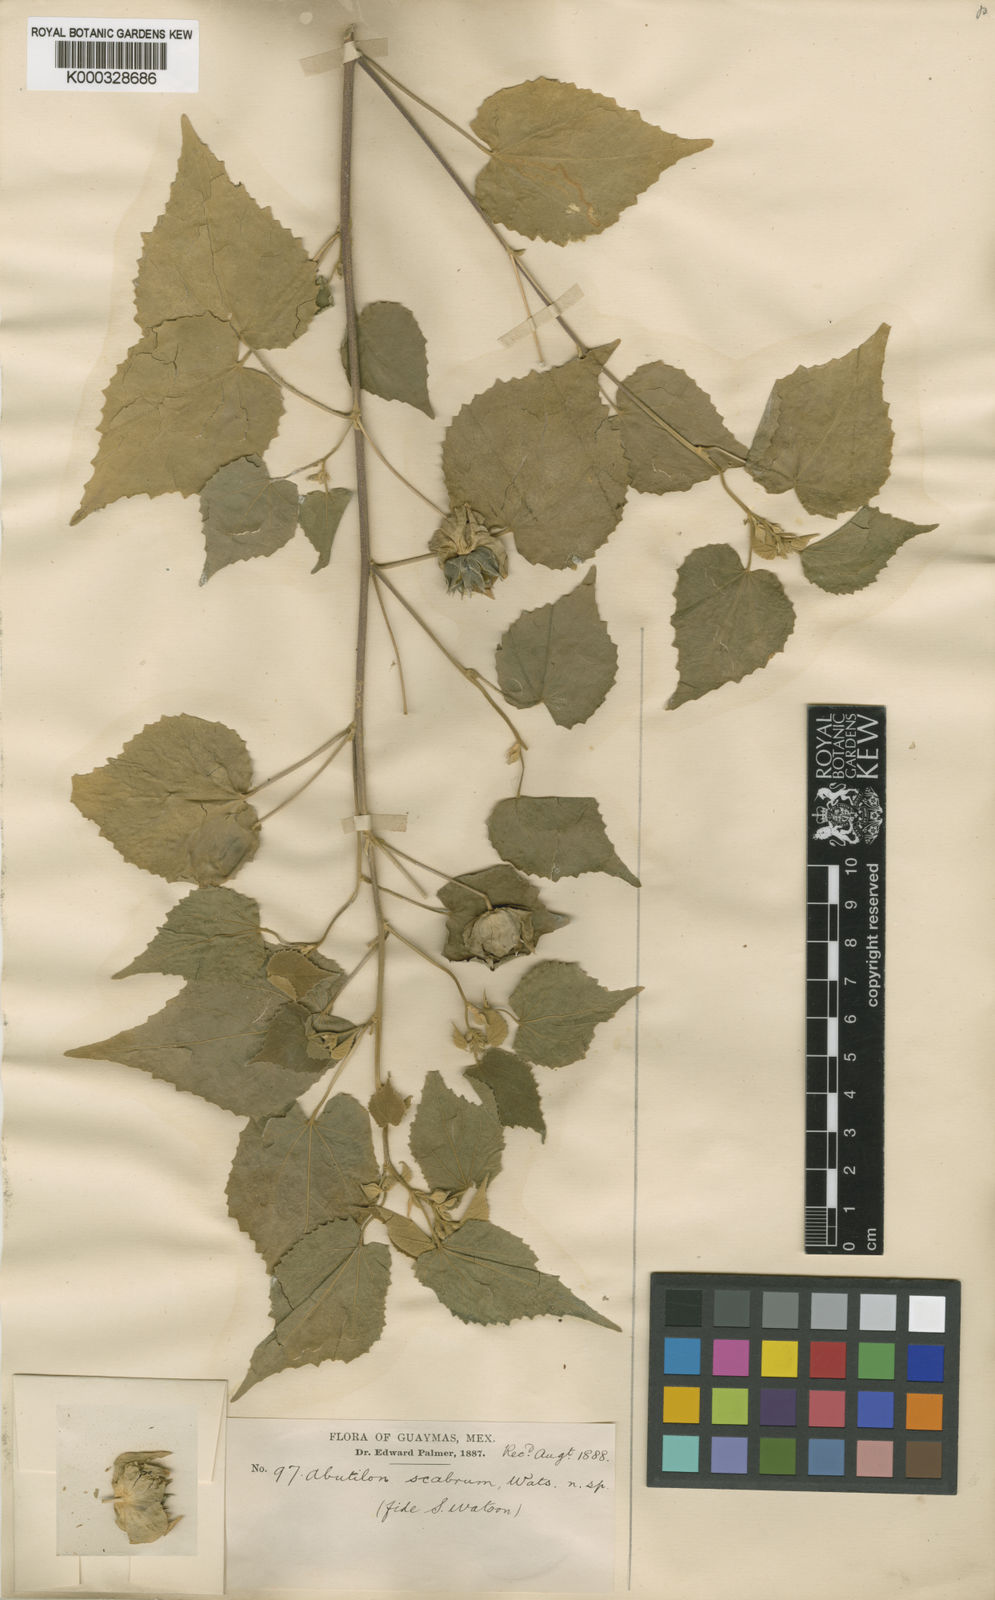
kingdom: Plantae
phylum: Tracheophyta
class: Magnoliopsida
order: Malvales
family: Malvaceae
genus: Abutilon
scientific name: Abutilon abutiloides
